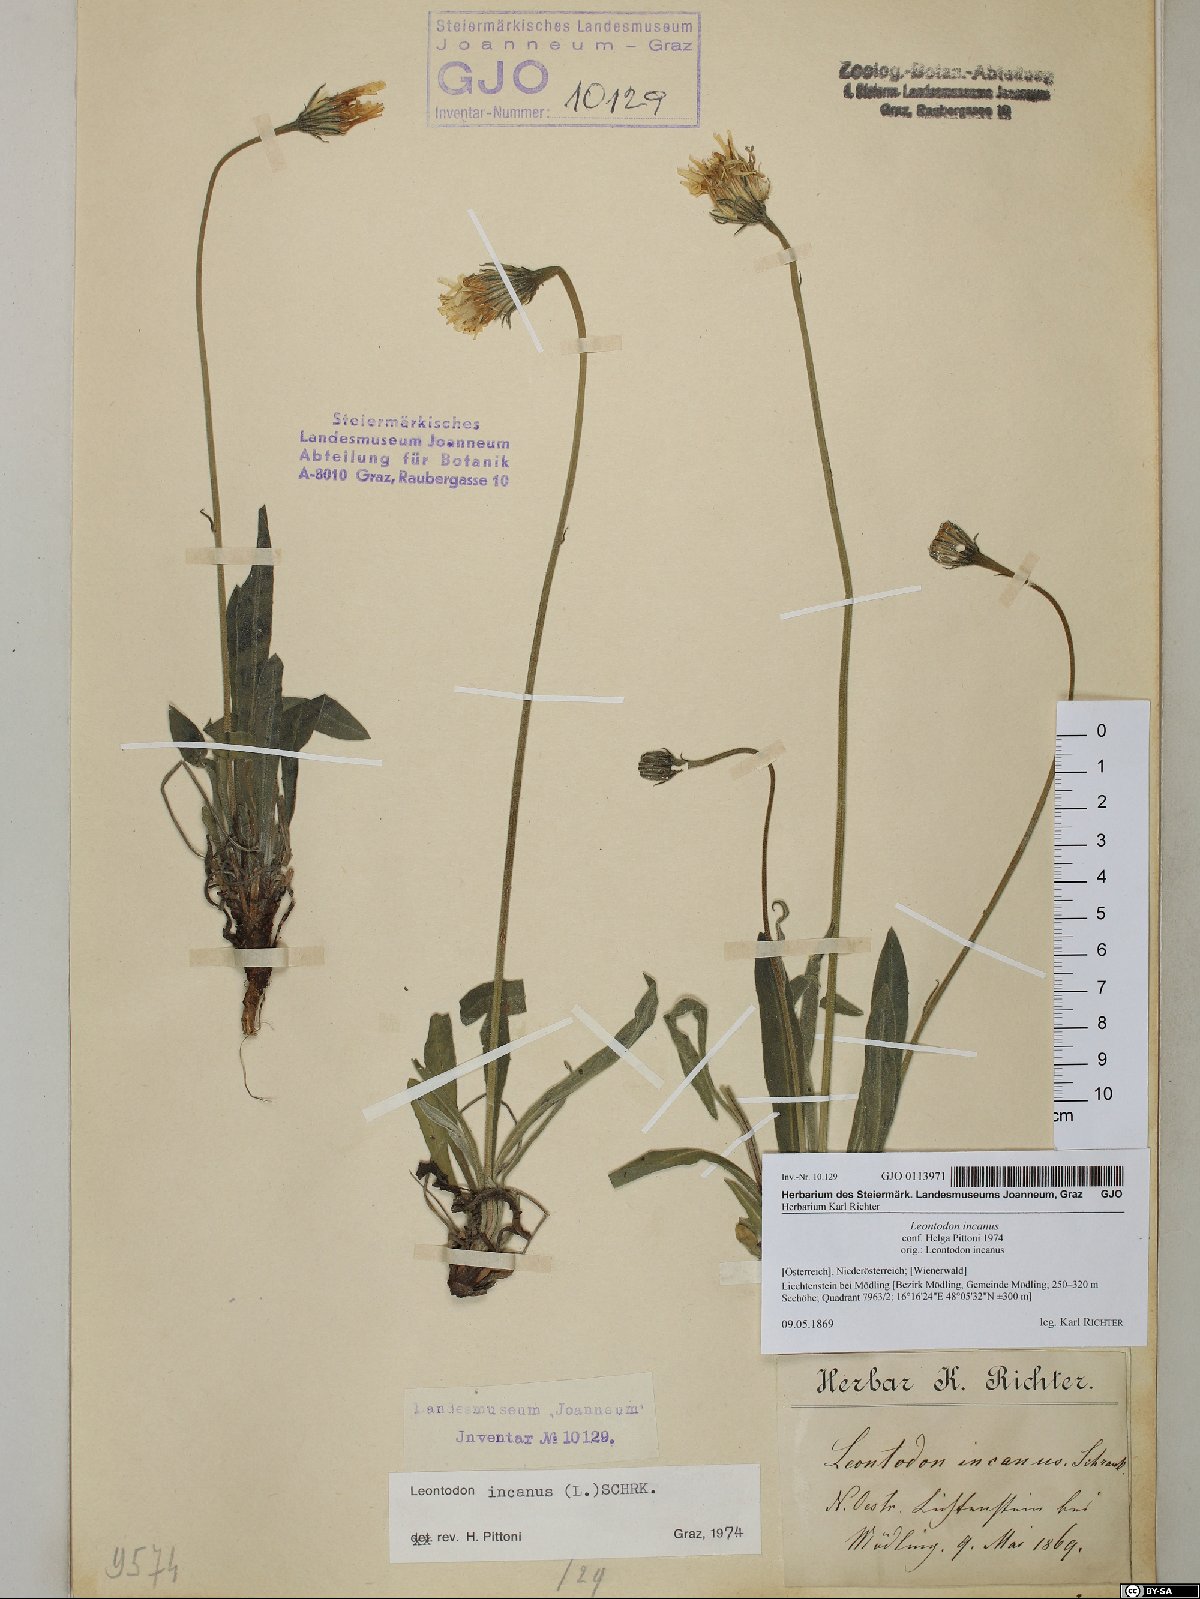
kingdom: Plantae
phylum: Tracheophyta
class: Magnoliopsida
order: Asterales
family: Asteraceae
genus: Leontodon
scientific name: Leontodon incanus
